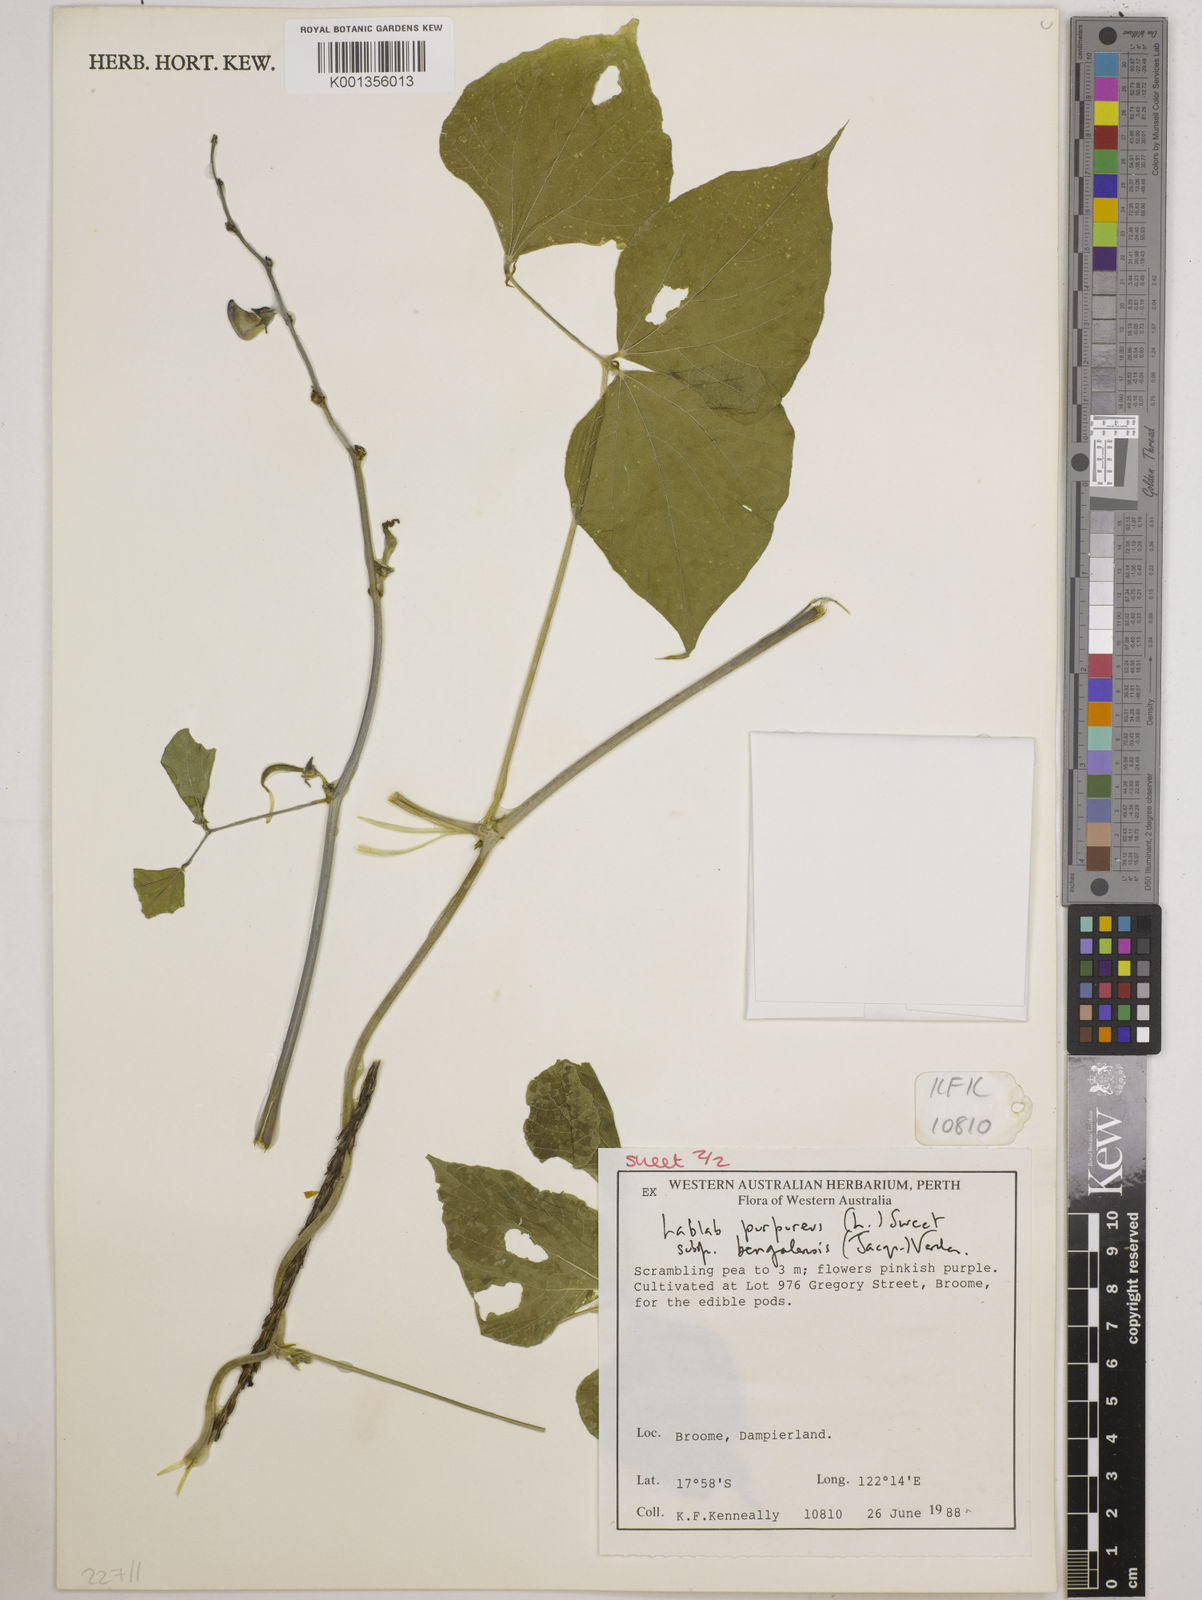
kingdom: Plantae
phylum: Tracheophyta
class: Magnoliopsida
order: Fabales
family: Fabaceae
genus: Lablab
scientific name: Lablab purpureus
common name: Lablab-bean
